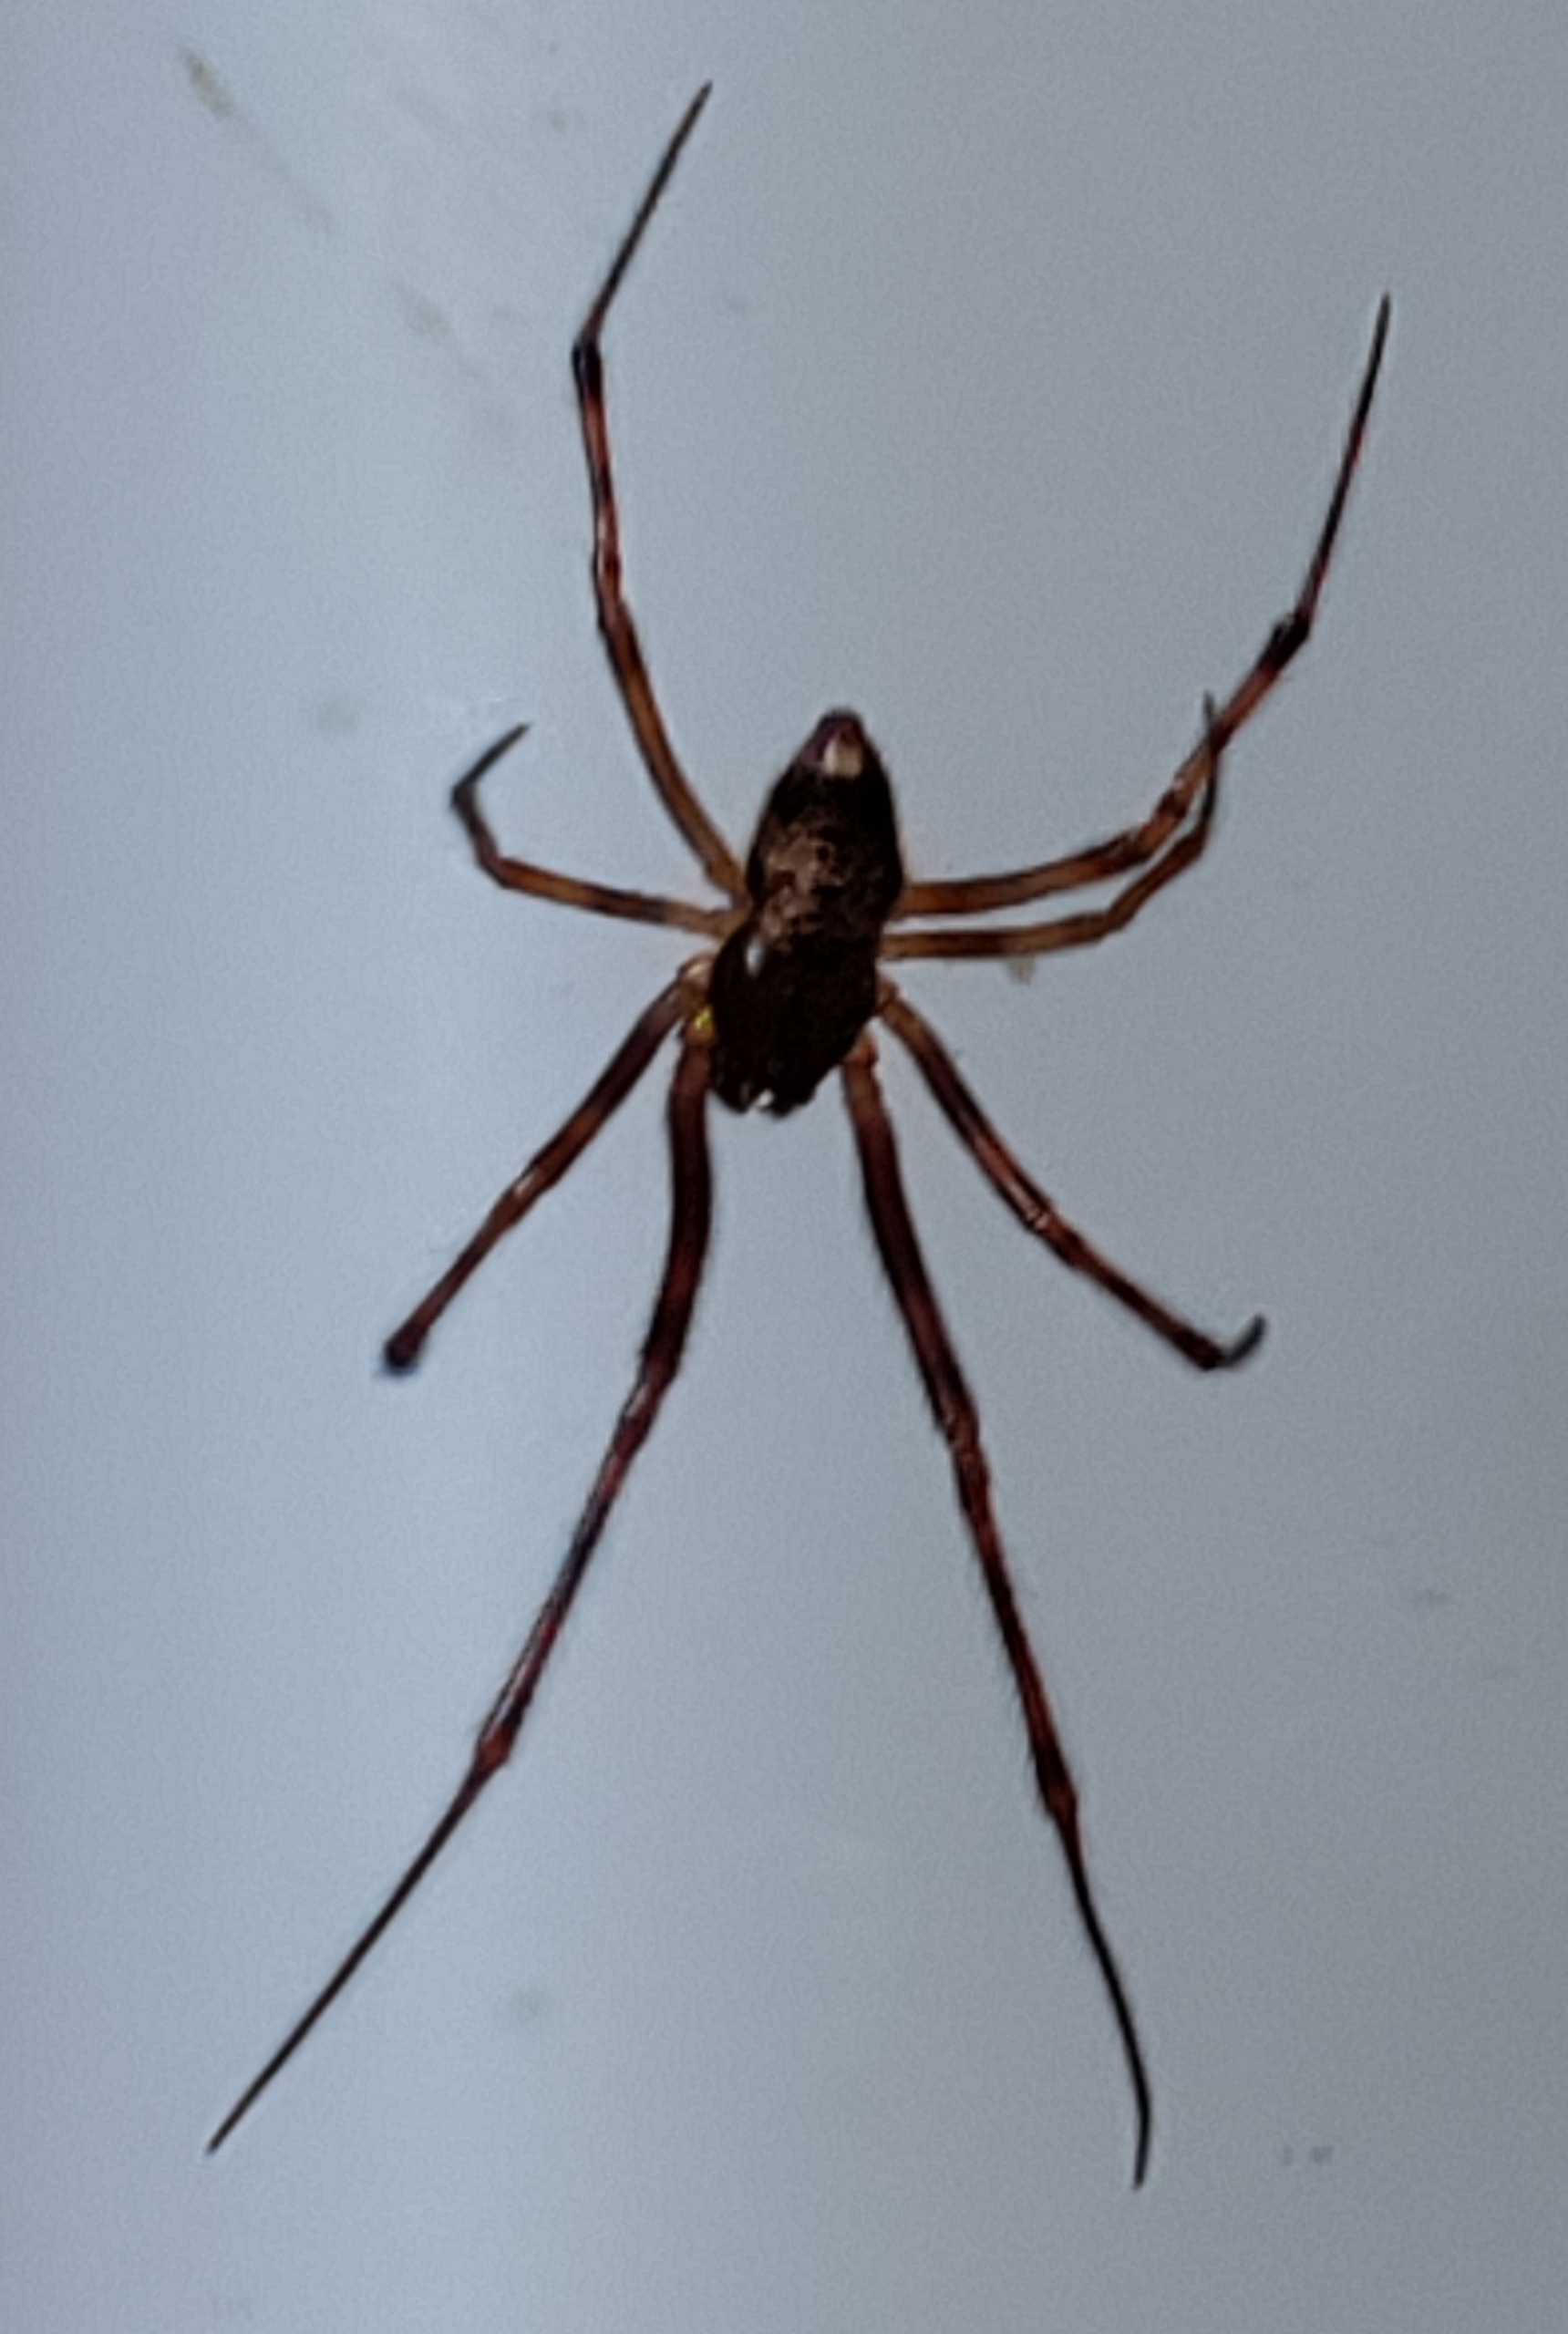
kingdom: Animalia
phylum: Arthropoda
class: Arachnida
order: Araneae
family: Theridiidae
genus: Parasteatoda
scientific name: Parasteatoda
